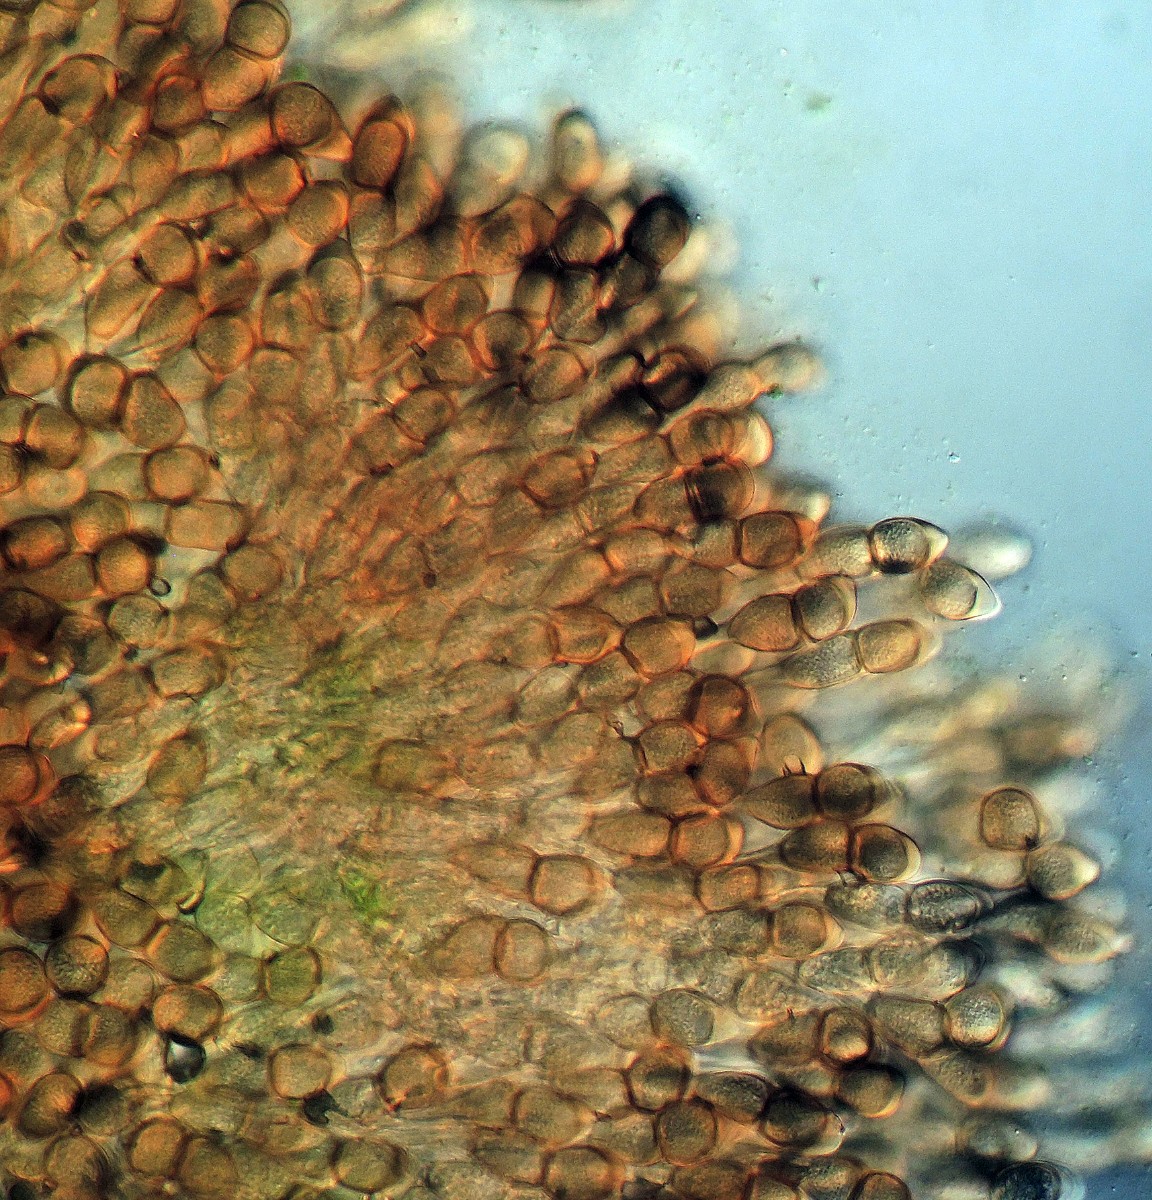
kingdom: Fungi
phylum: Basidiomycota
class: Pucciniomycetes
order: Pucciniales
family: Pucciniaceae
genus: Puccinia
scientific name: Puccinia arenariae
